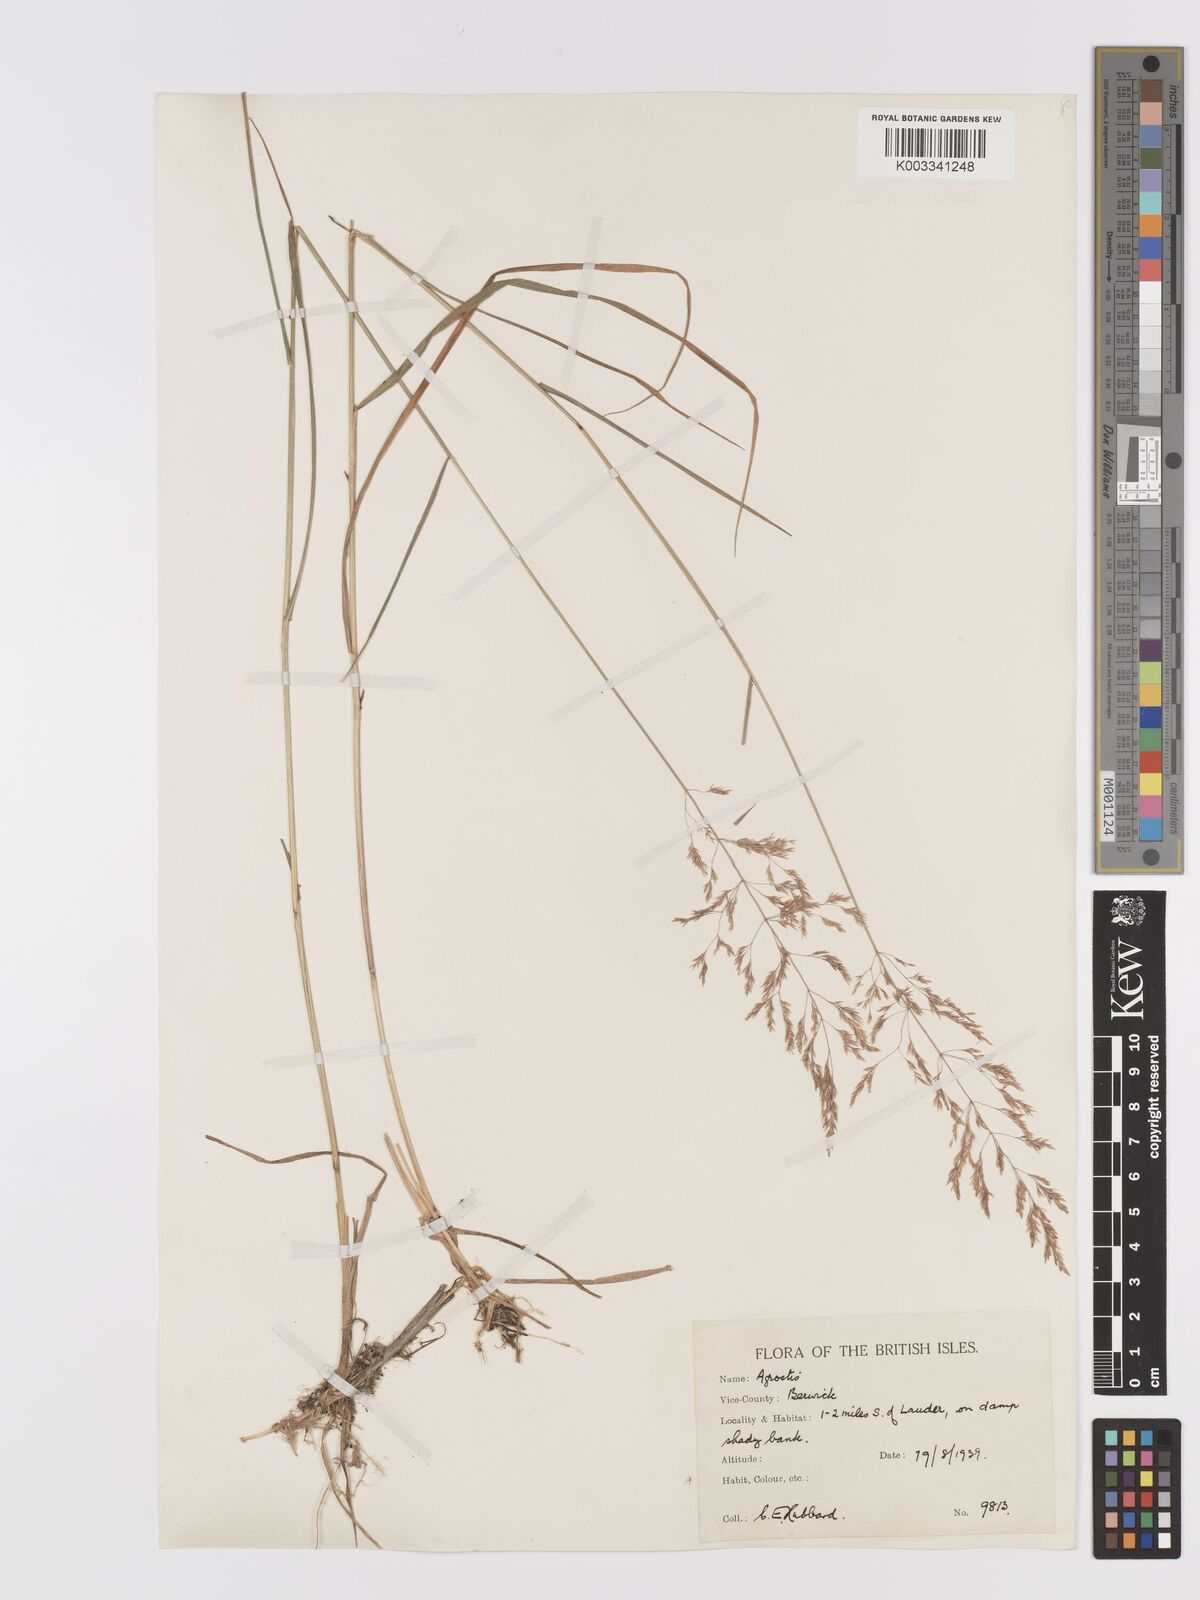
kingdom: Plantae
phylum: Tracheophyta
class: Liliopsida
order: Poales
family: Poaceae
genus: Agrostis
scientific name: Agrostis gigantea
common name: Black bent
